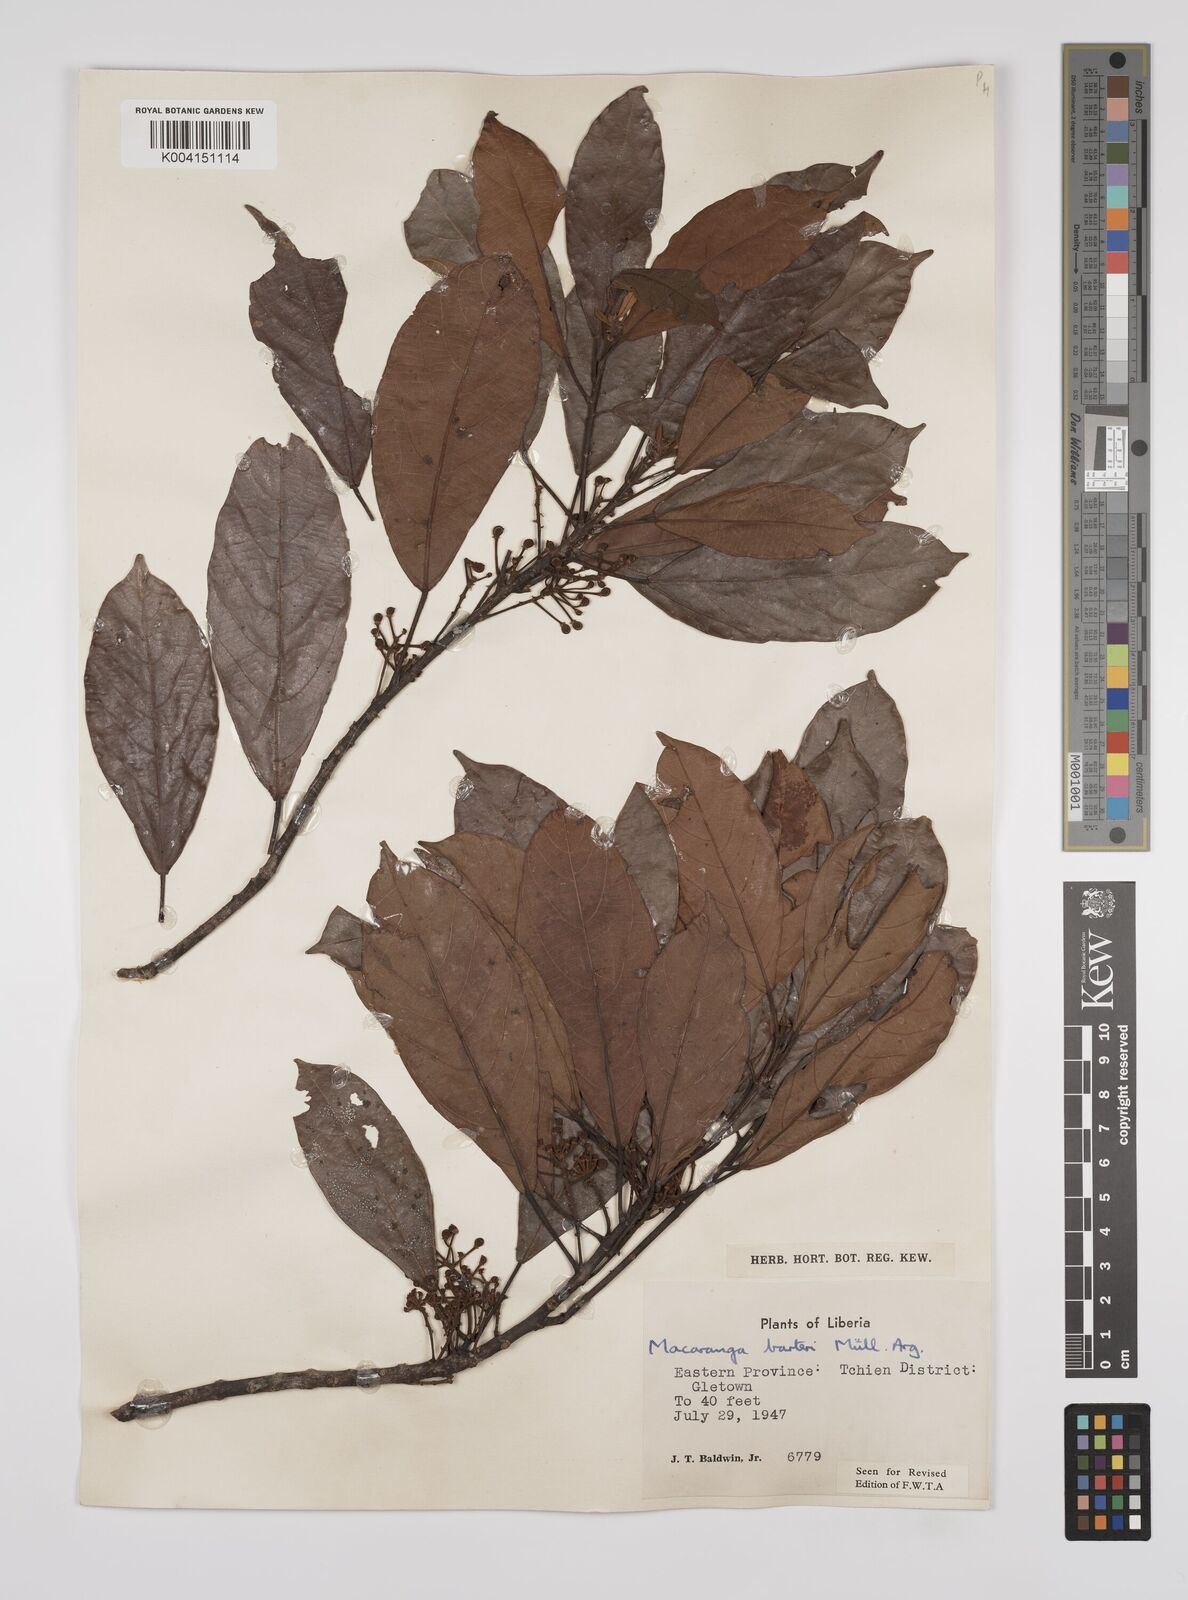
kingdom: Plantae
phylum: Tracheophyta
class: Magnoliopsida
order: Malpighiales
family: Euphorbiaceae
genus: Macaranga
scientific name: Macaranga barteri
